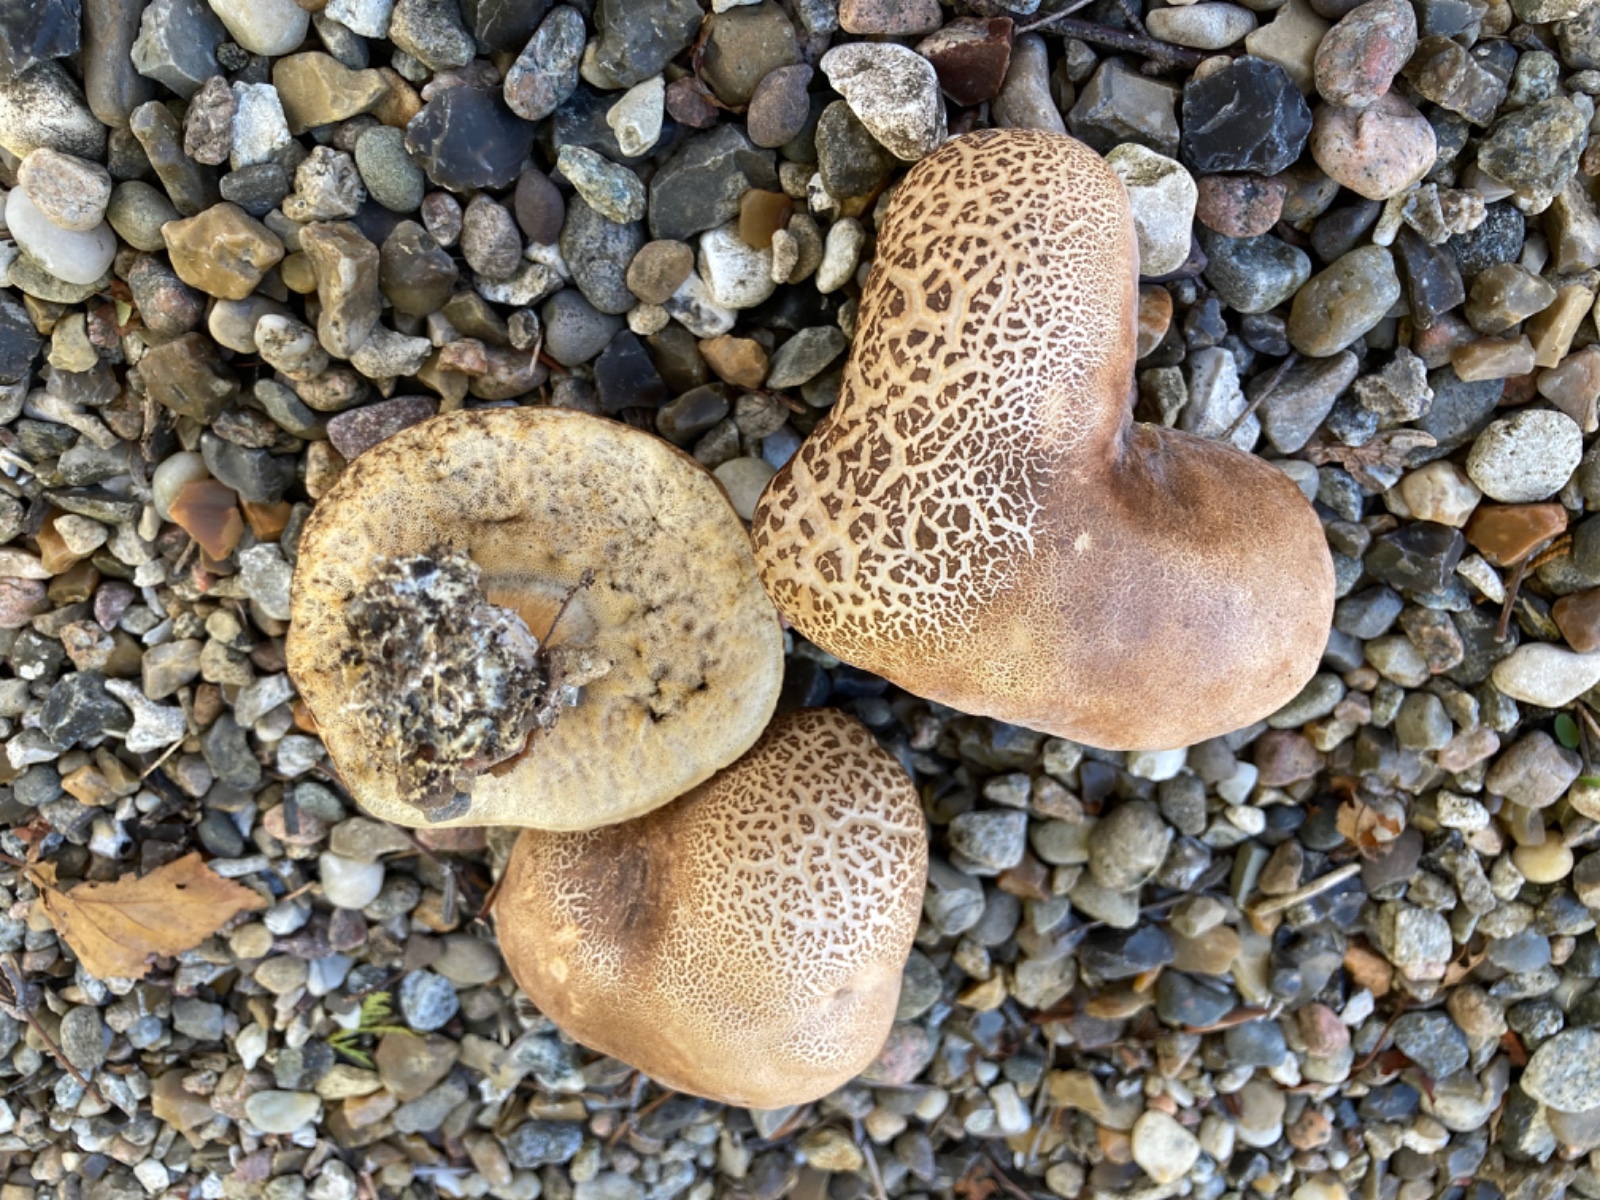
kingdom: Fungi
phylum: Basidiomycota
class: Agaricomycetes
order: Boletales
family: Boletaceae
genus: Leccinum
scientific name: Leccinum
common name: skælrørhat
